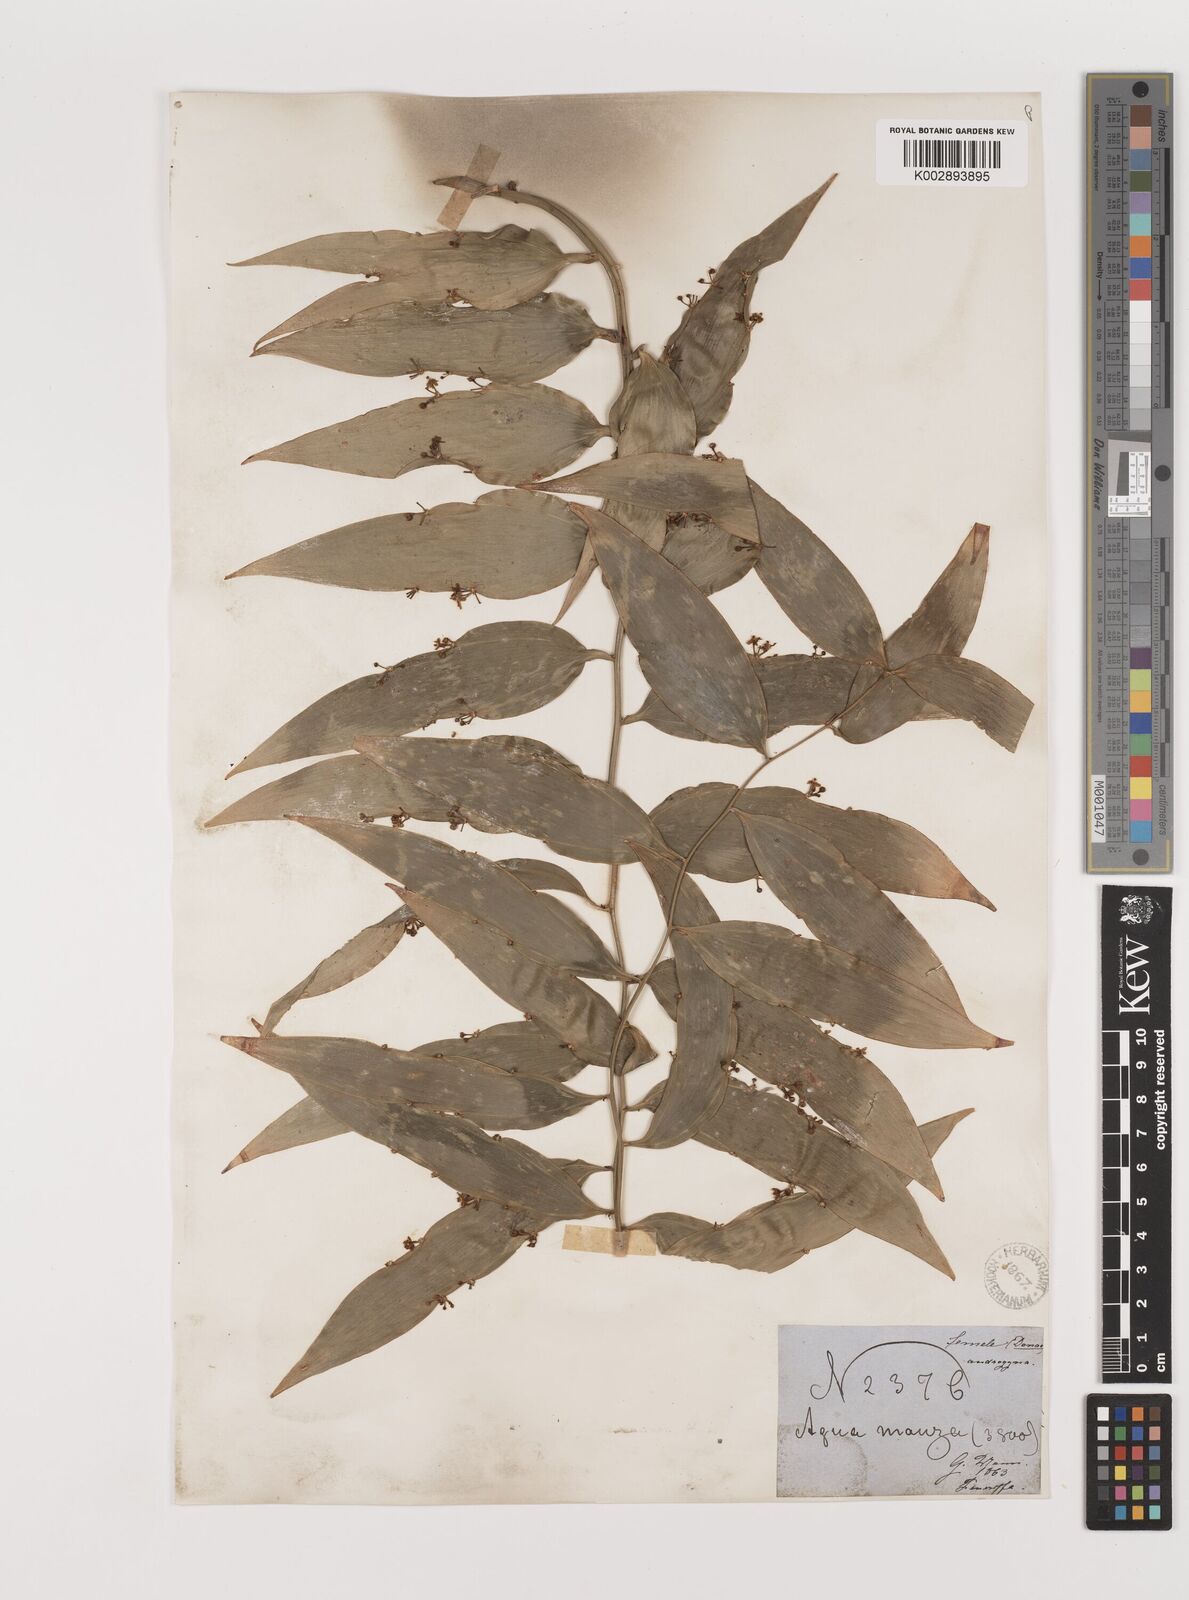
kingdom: Plantae
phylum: Tracheophyta
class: Liliopsida
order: Asparagales
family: Asparagaceae
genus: Semele
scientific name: Semele androgyna
